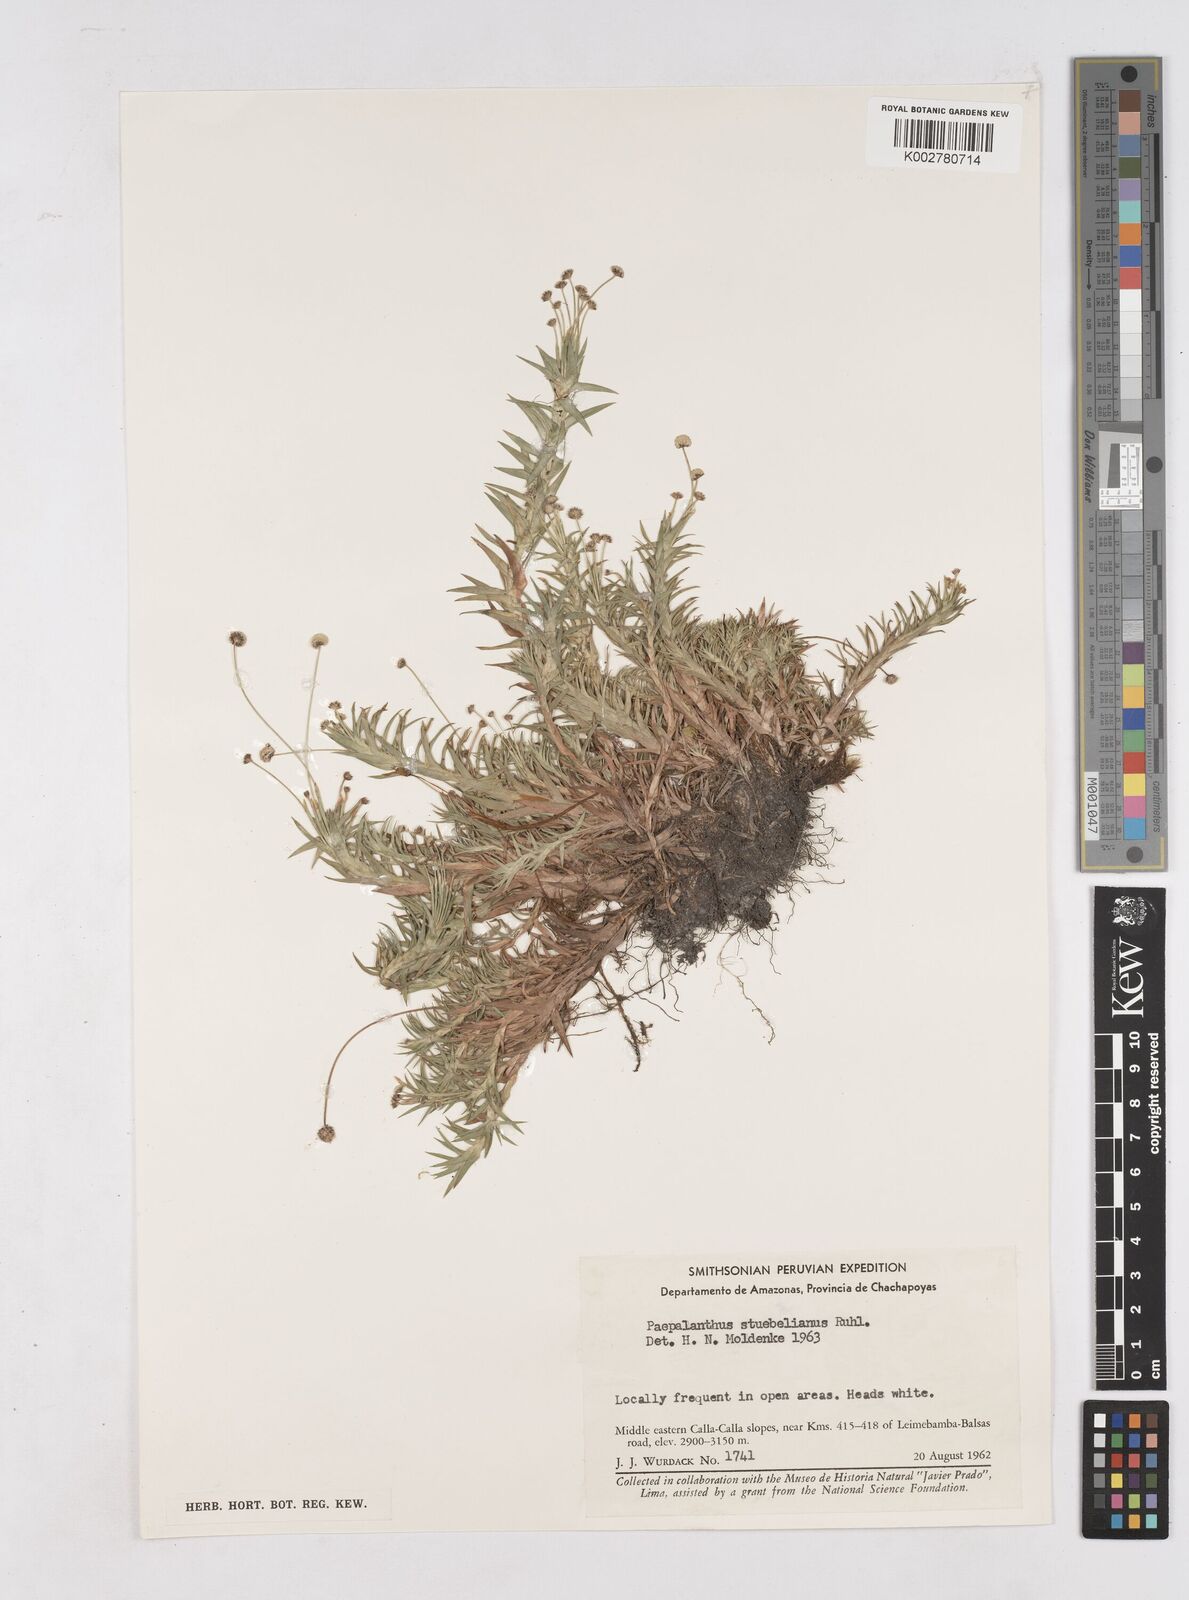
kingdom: Plantae
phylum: Tracheophyta
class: Liliopsida
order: Poales
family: Eriocaulaceae
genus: Paepalanthus
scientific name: Paepalanthus intermedius
